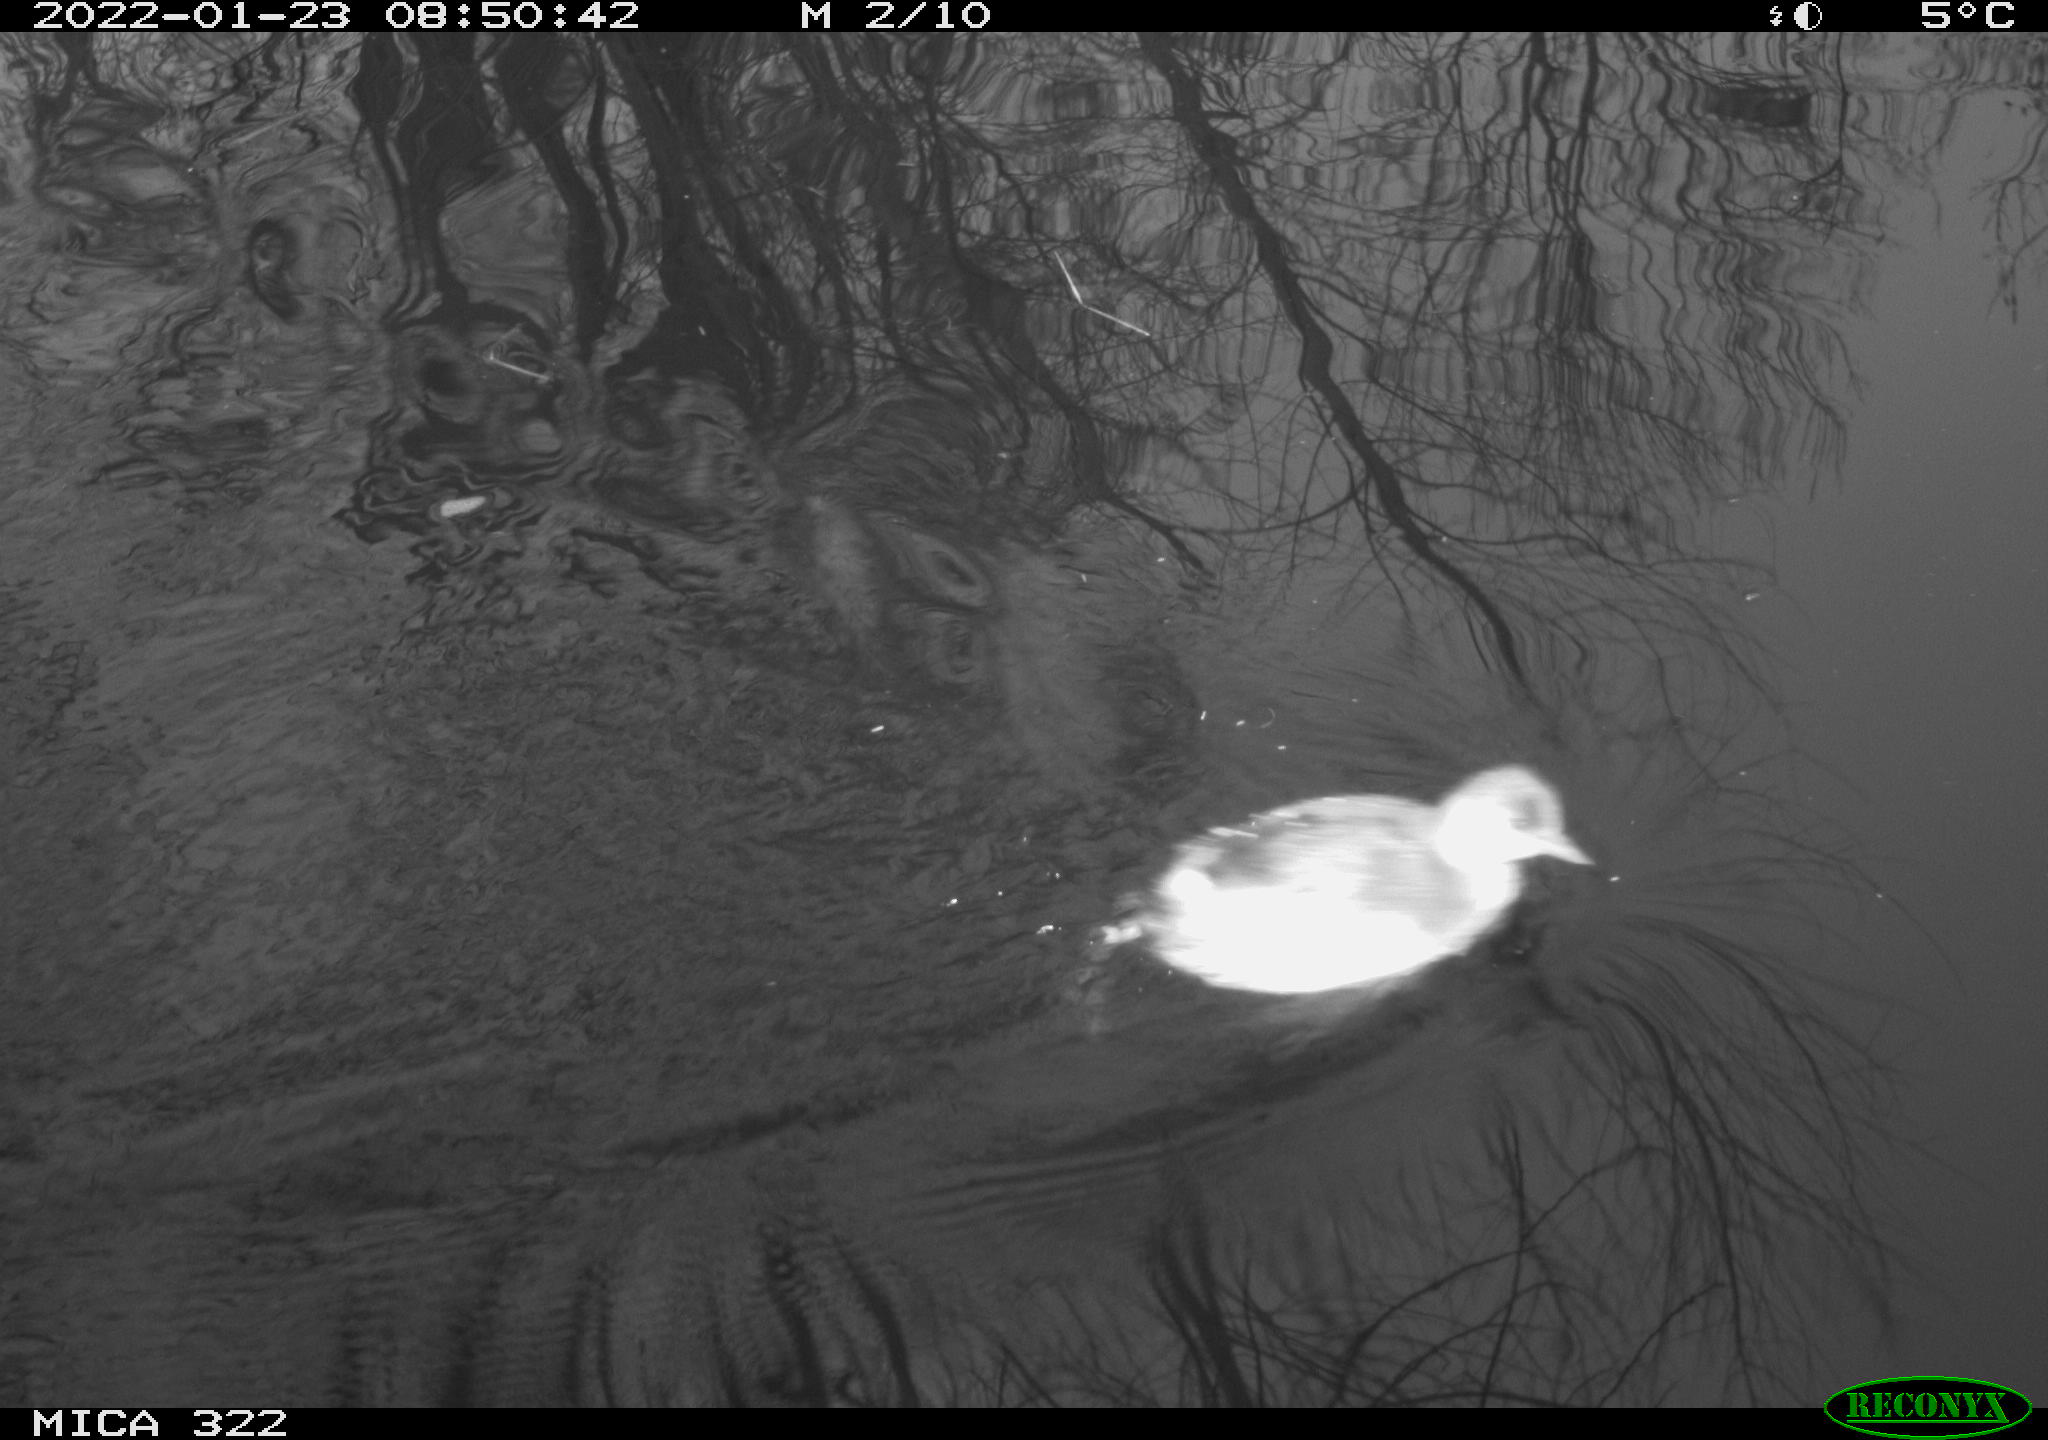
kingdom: Animalia
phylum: Chordata
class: Aves
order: Anseriformes
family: Anatidae
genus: Anas
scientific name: Anas
